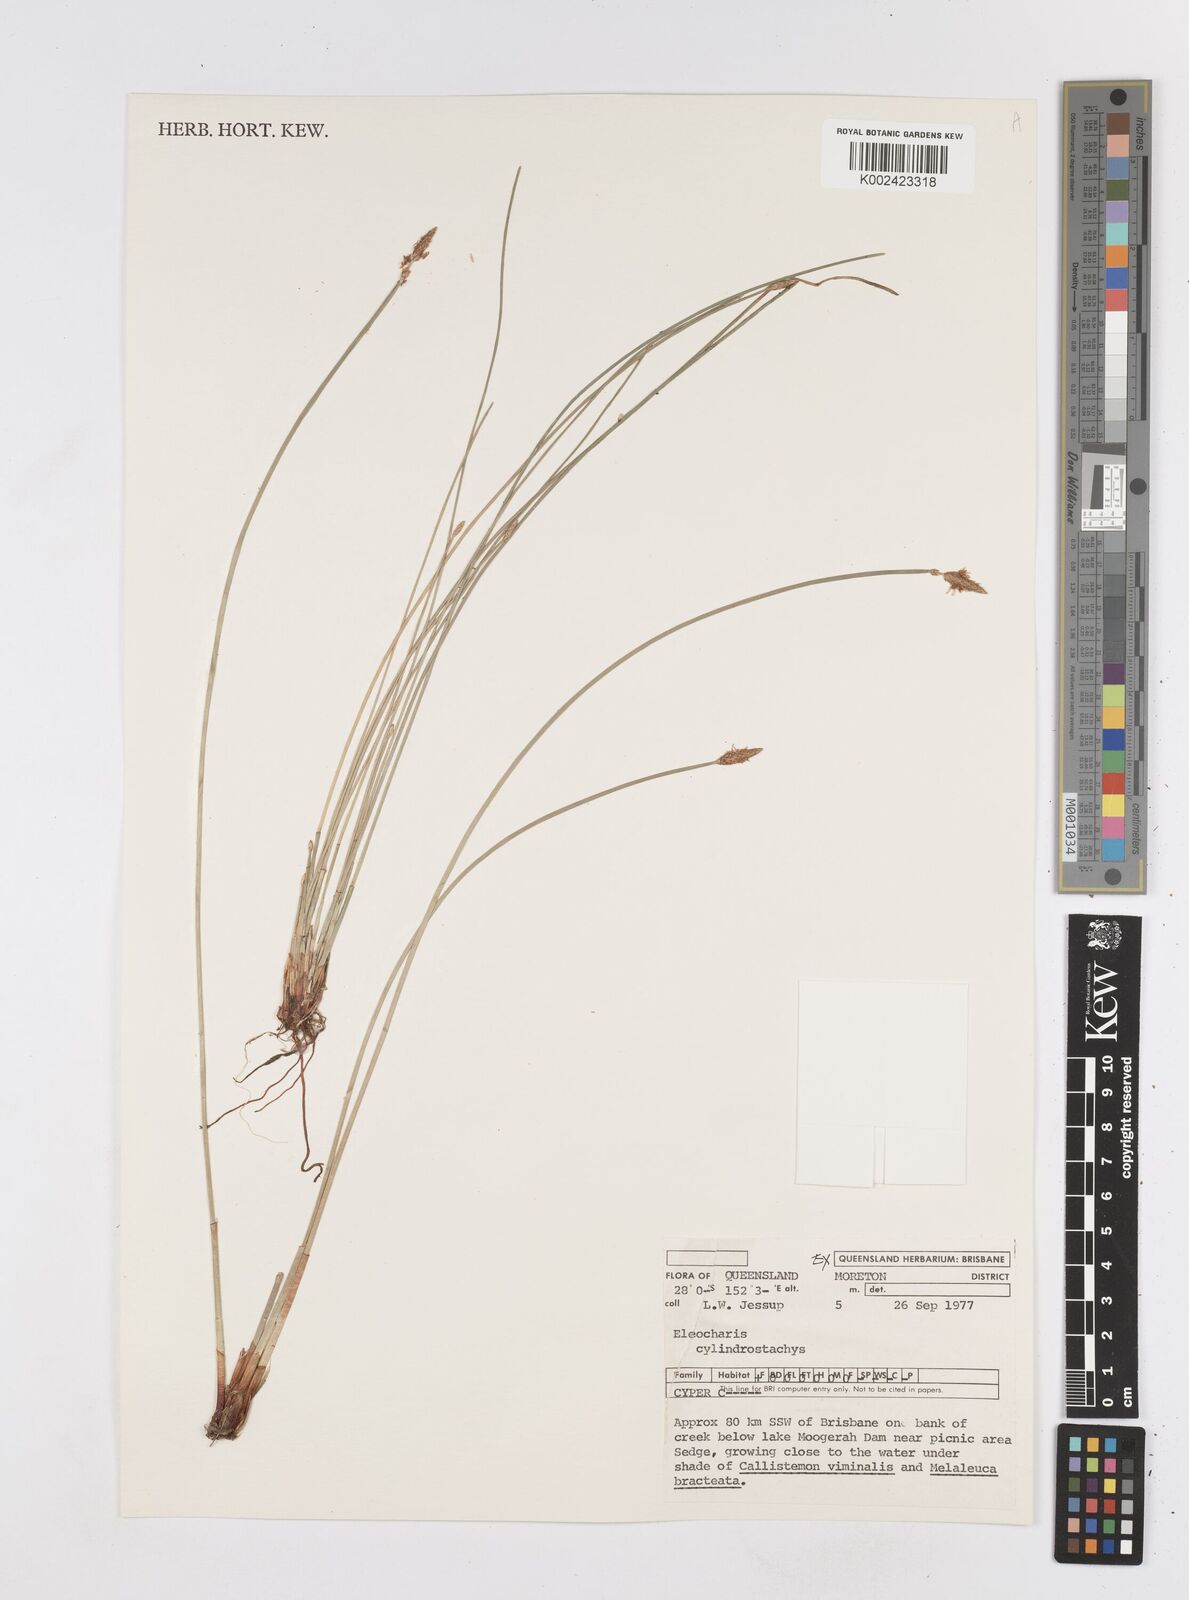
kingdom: Plantae
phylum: Tracheophyta
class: Liliopsida
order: Poales
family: Cyperaceae
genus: Eleocharis
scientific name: Eleocharis cylindrostachys
